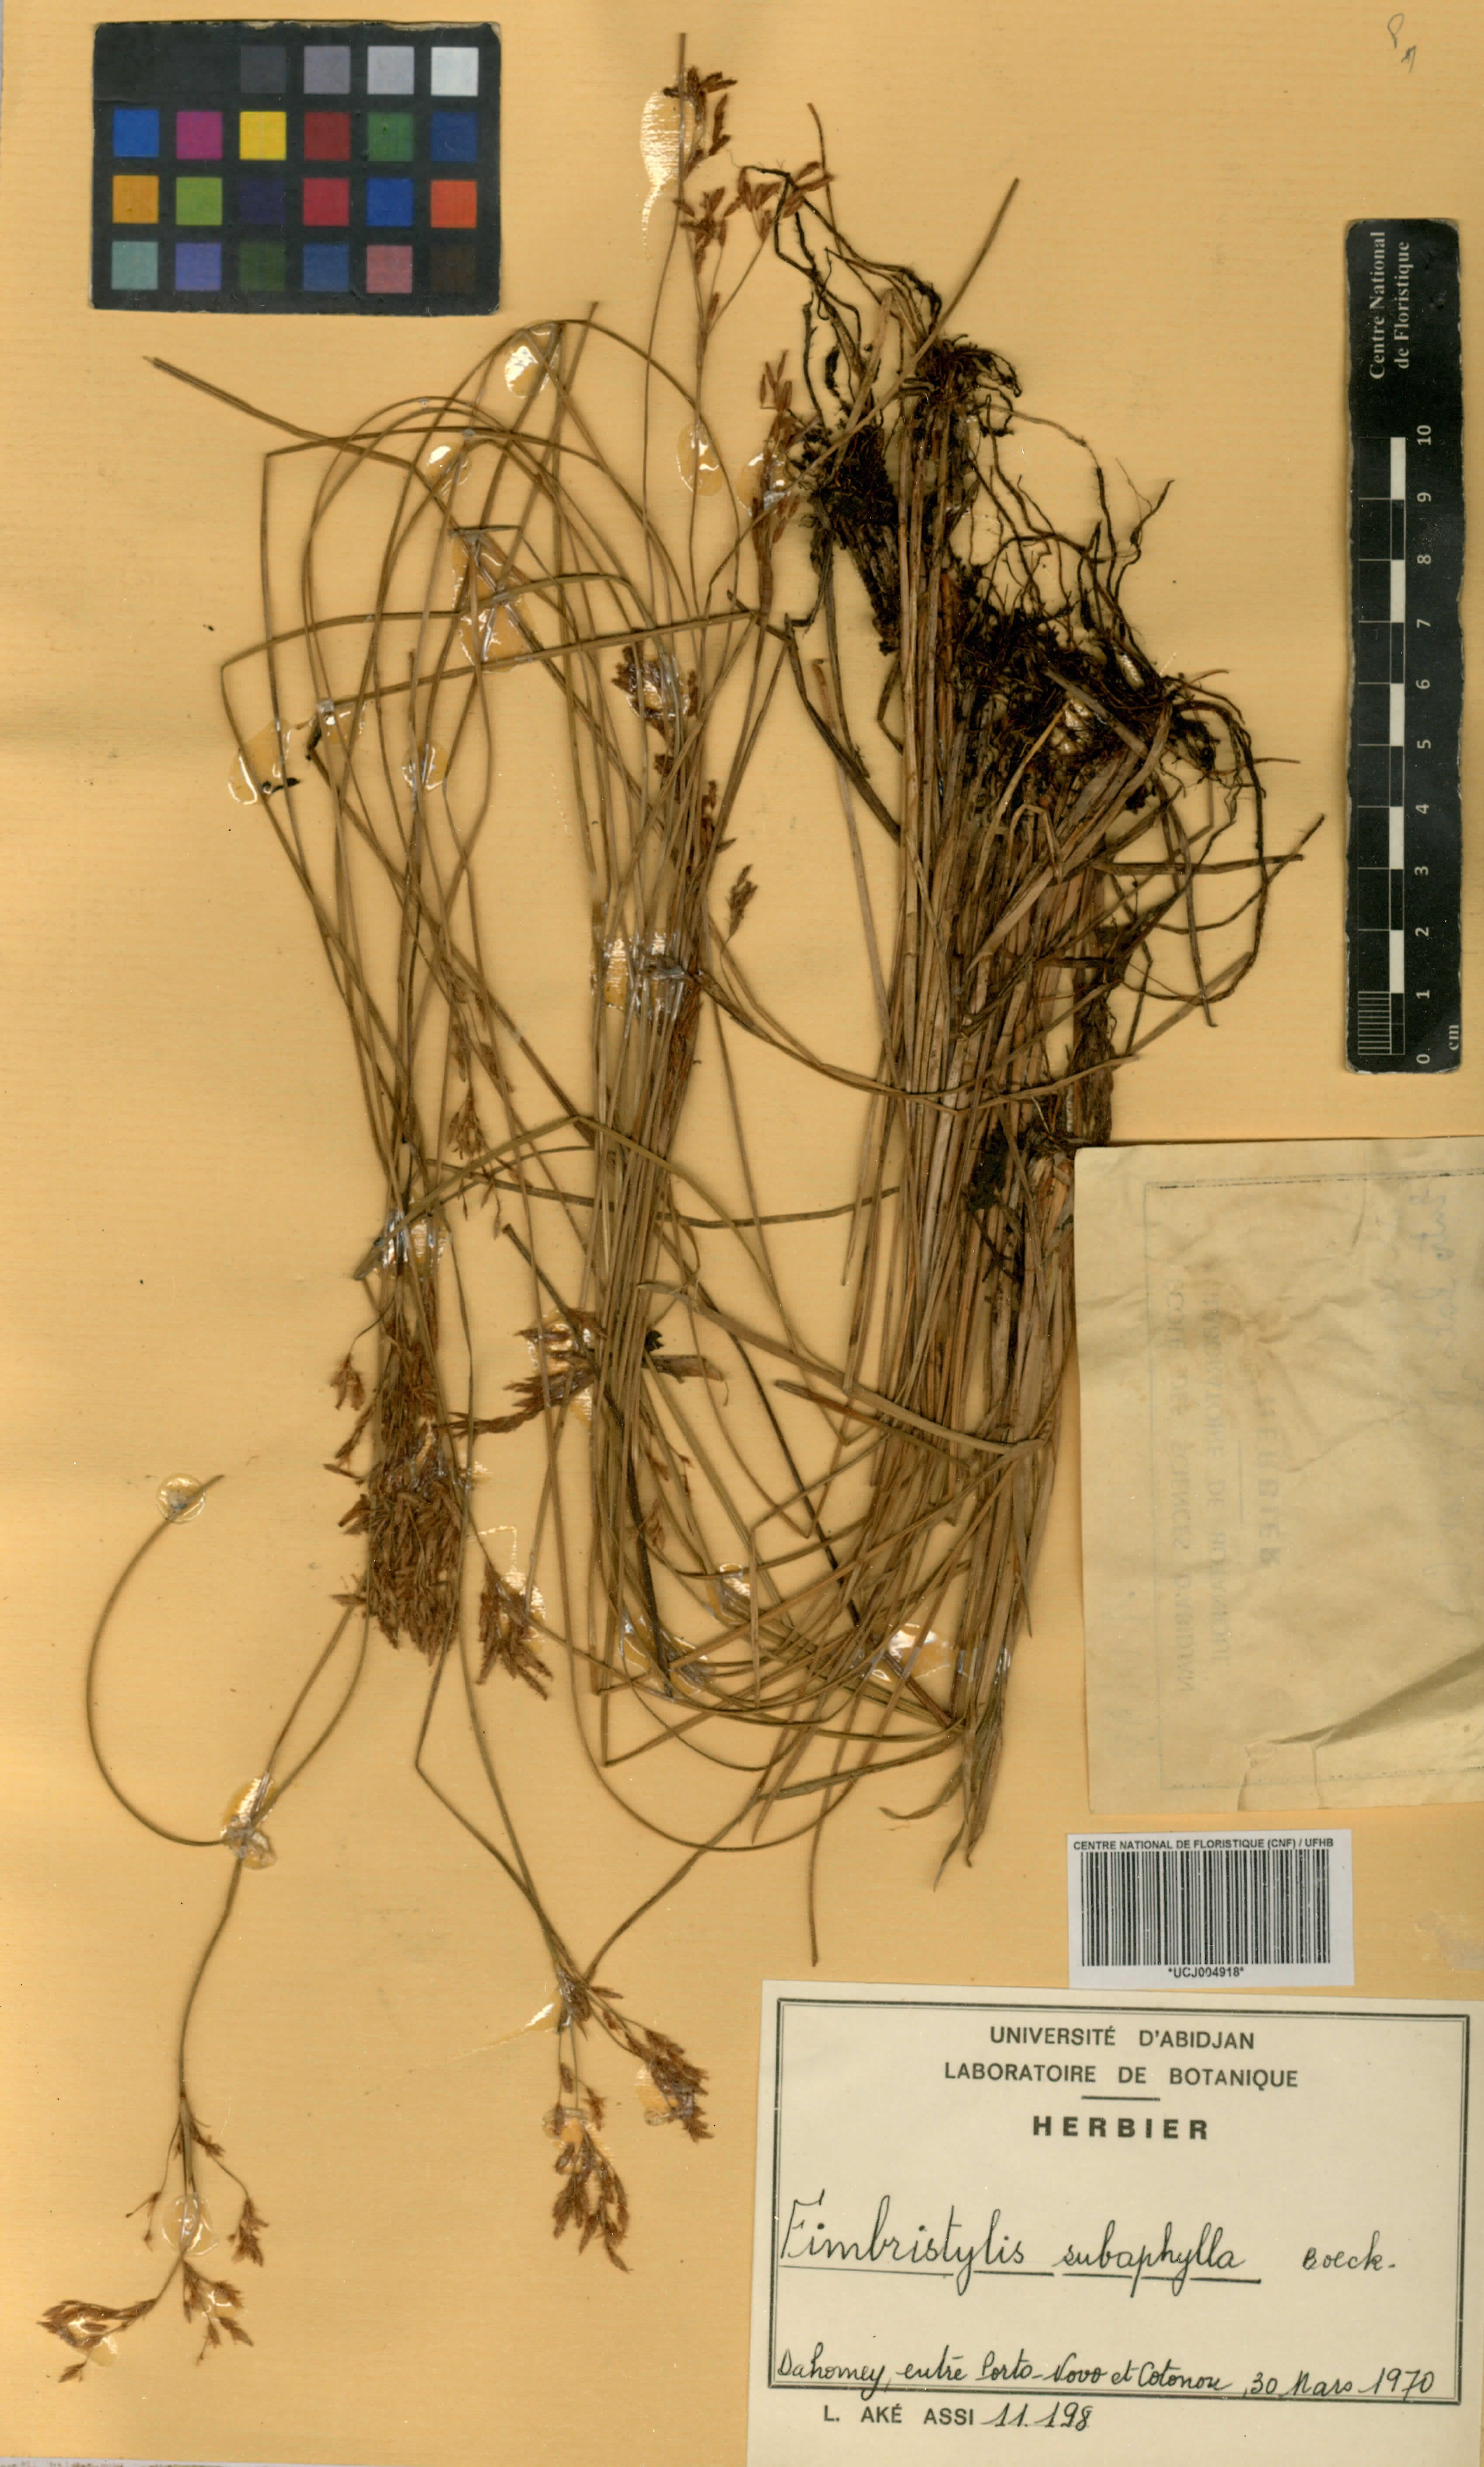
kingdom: Plantae
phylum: Tracheophyta
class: Liliopsida
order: Poales
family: Cyperaceae
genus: Fimbristylis
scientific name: Fimbristylis subaphylla
